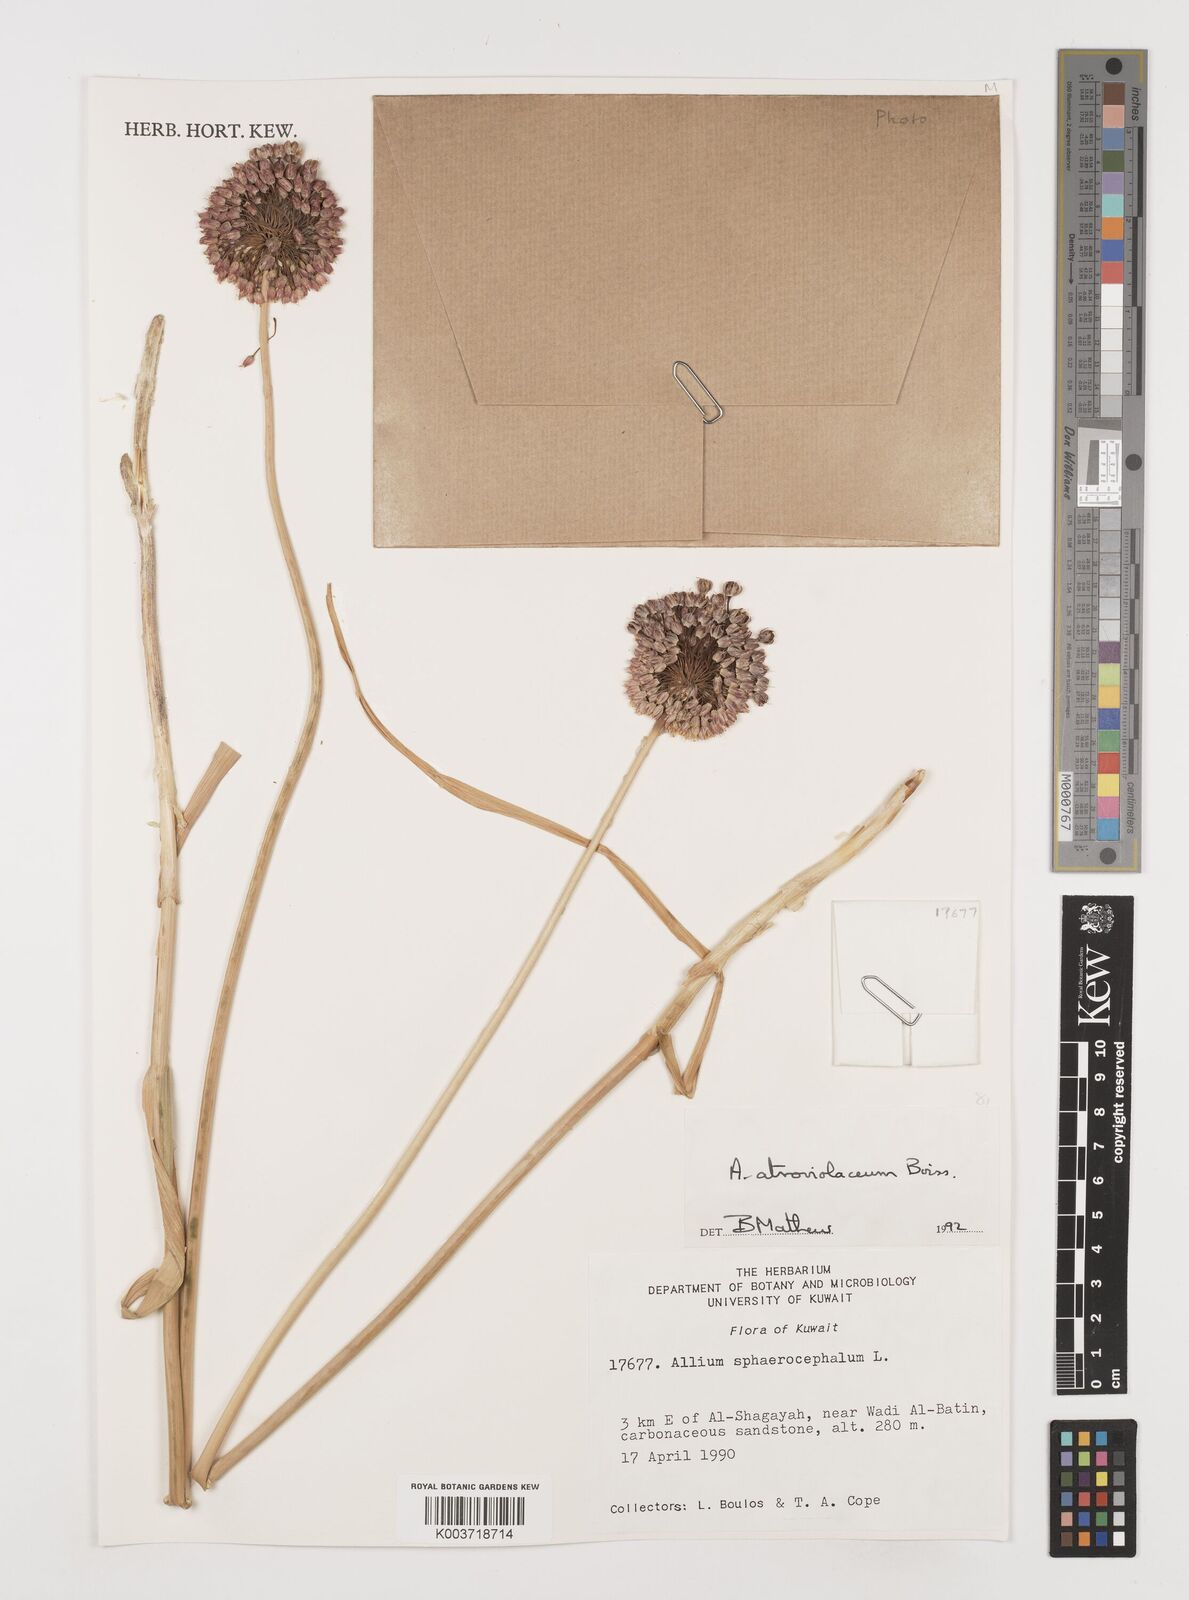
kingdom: Plantae
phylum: Tracheophyta
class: Liliopsida
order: Asparagales
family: Amaryllidaceae
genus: Allium
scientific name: Allium atroviolaceum
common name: Broadleaf wild leek
